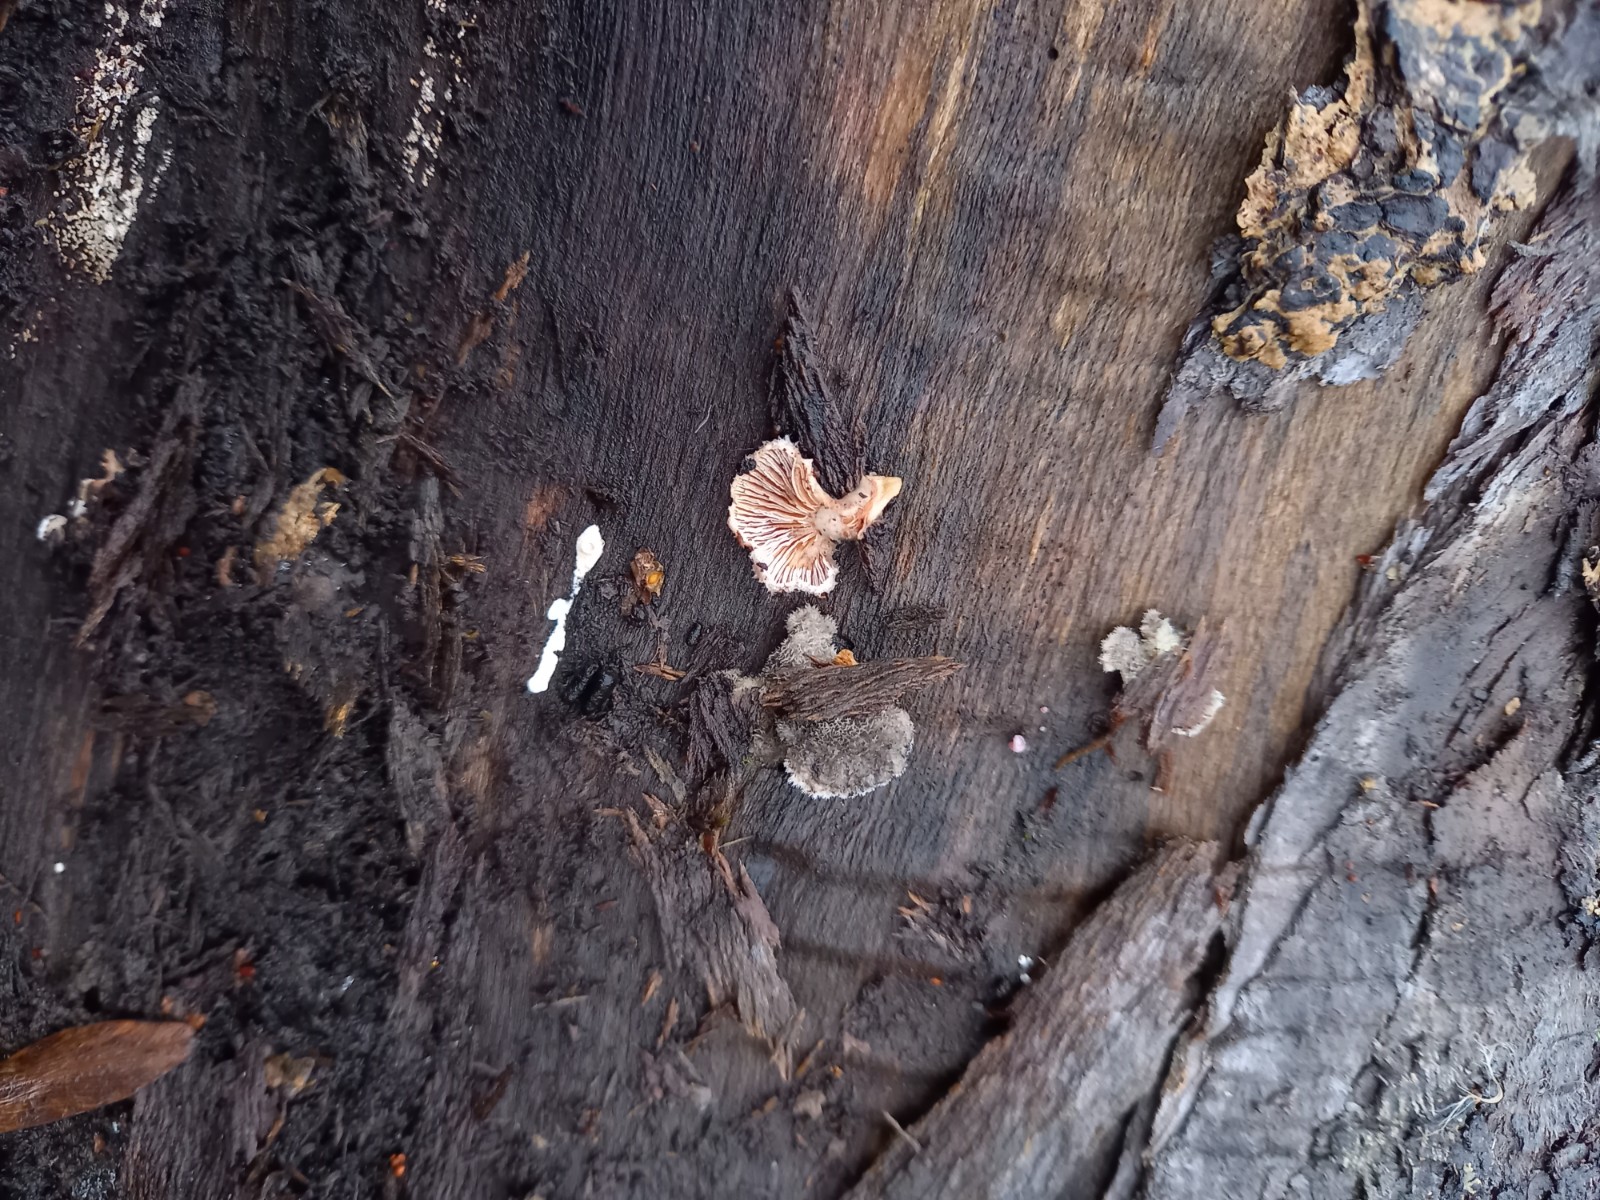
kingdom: Fungi
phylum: Basidiomycota
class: Agaricomycetes
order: Agaricales
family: Schizophyllaceae
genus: Schizophyllum
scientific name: Schizophyllum commune
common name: kløvblad
